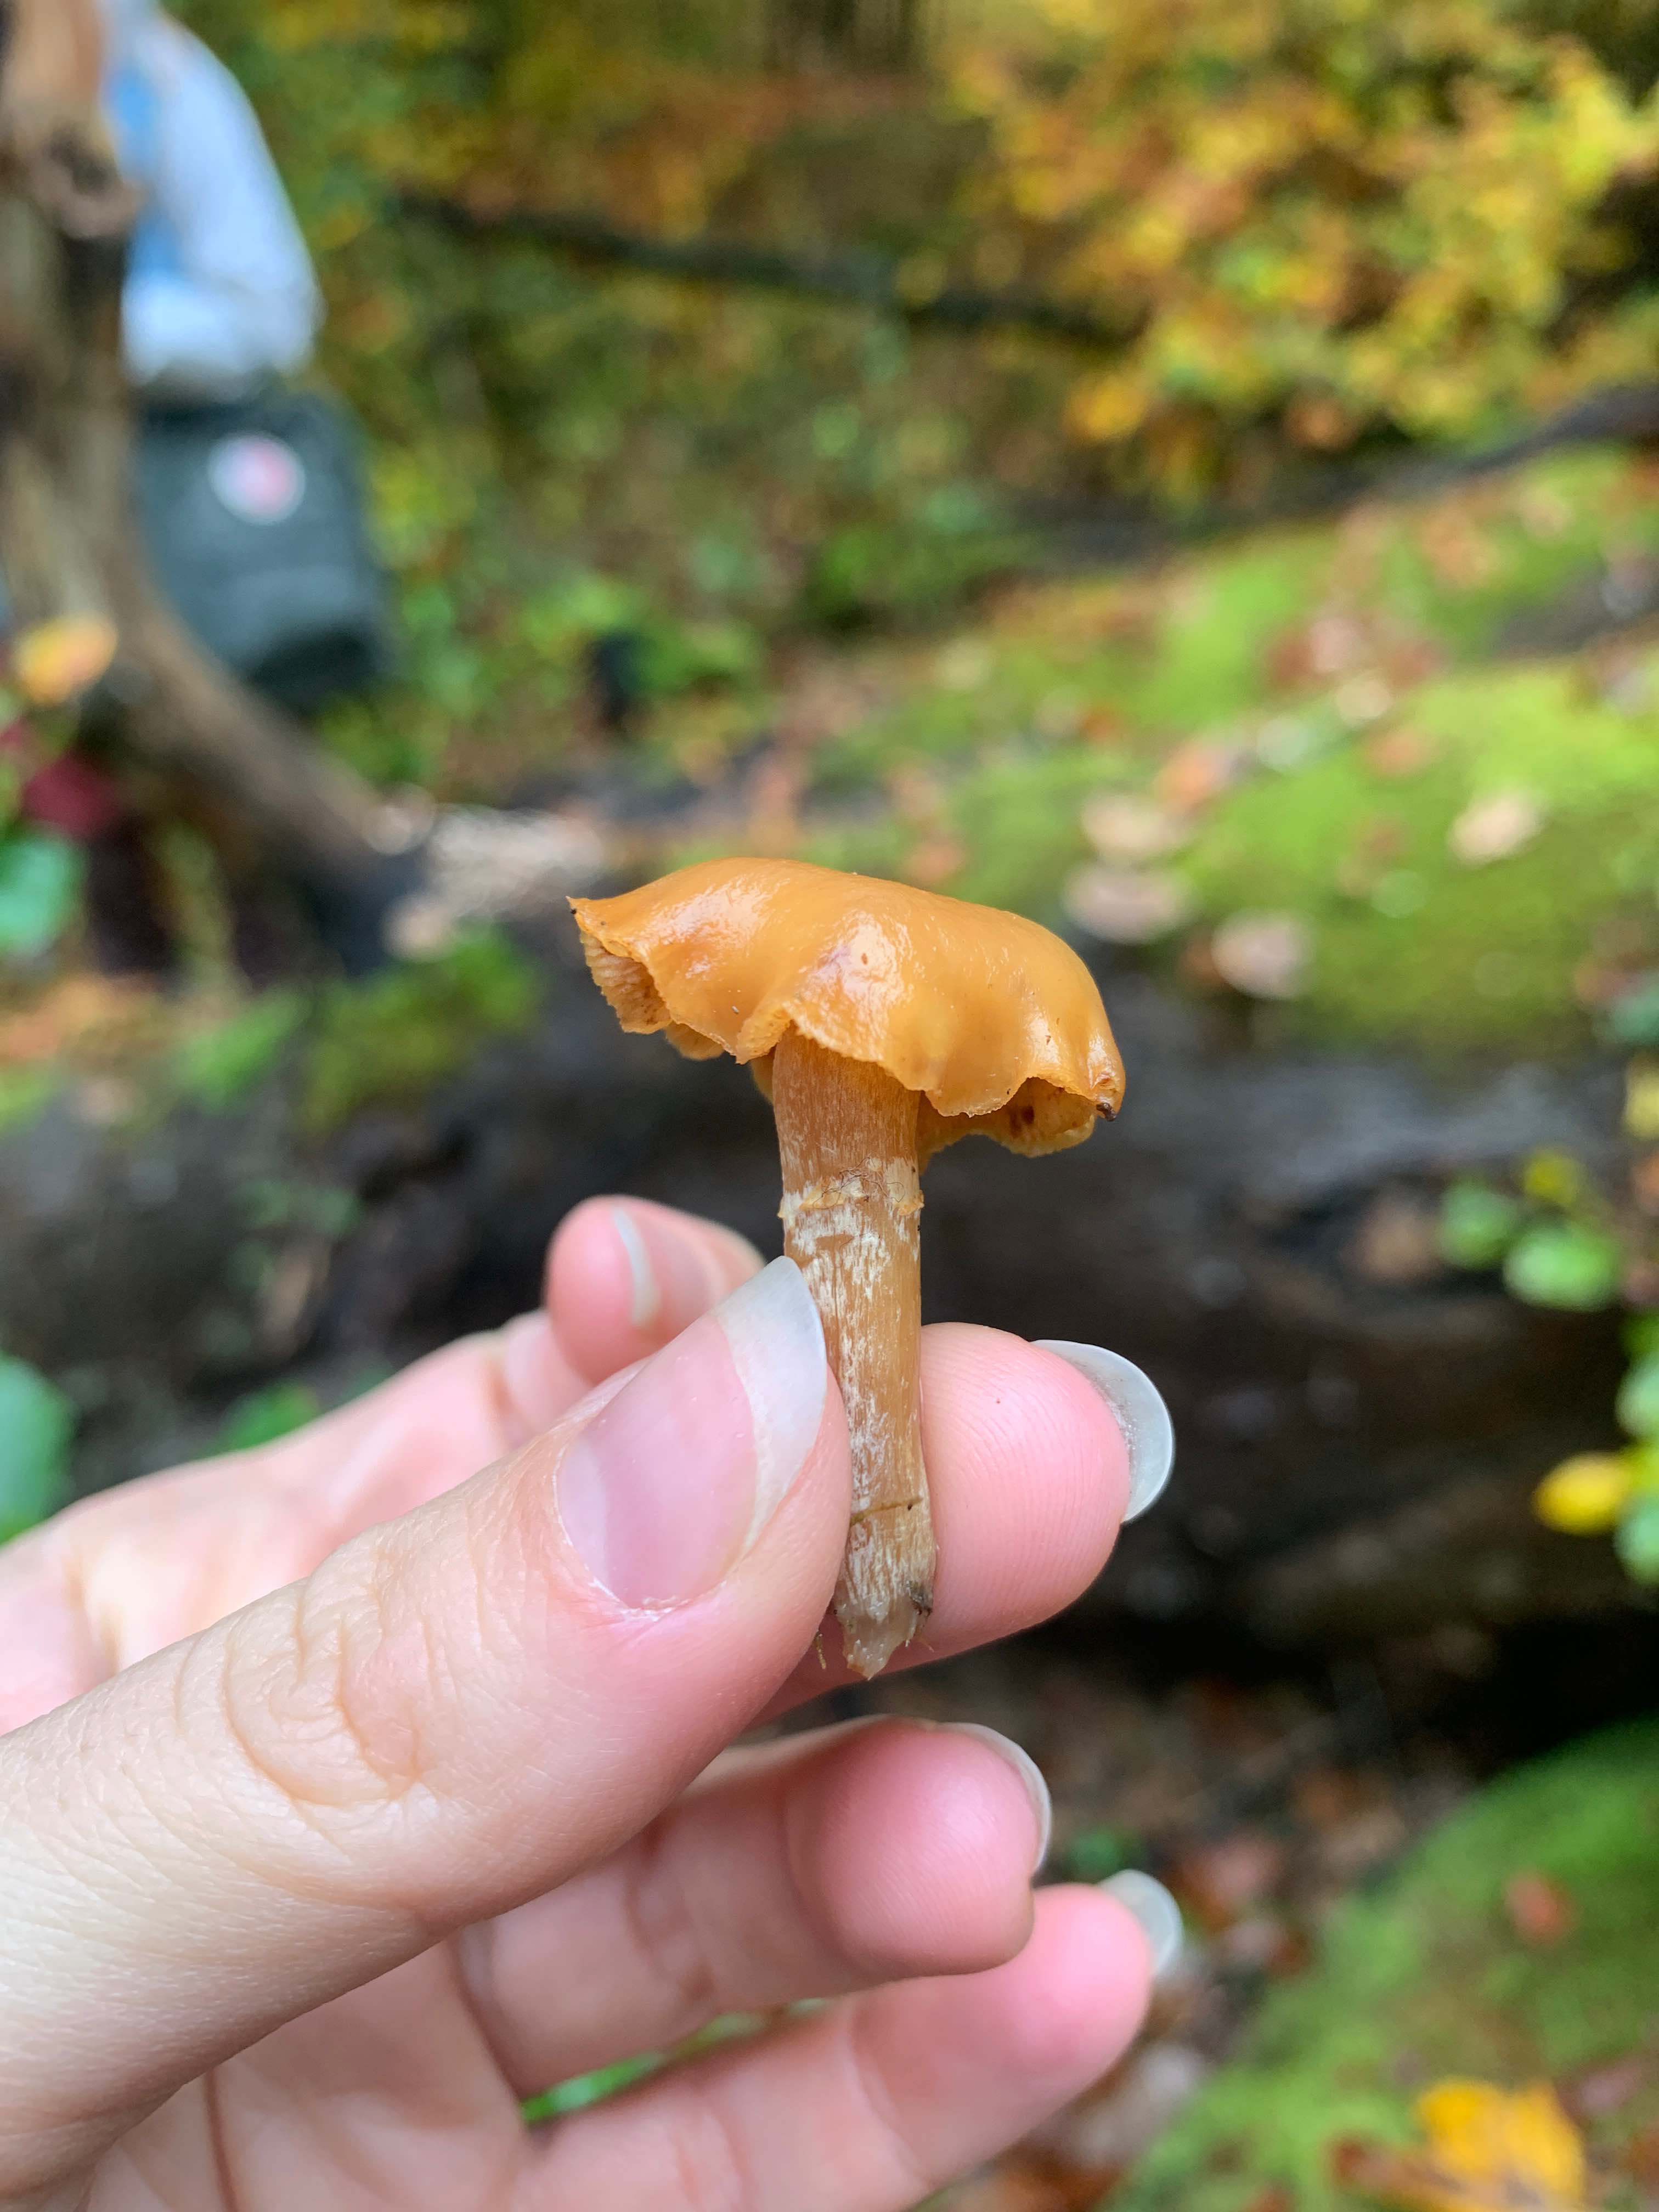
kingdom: Fungi
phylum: Basidiomycota
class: Agaricomycetes
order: Agaricales
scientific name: Agaricales
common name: champignonordenen
